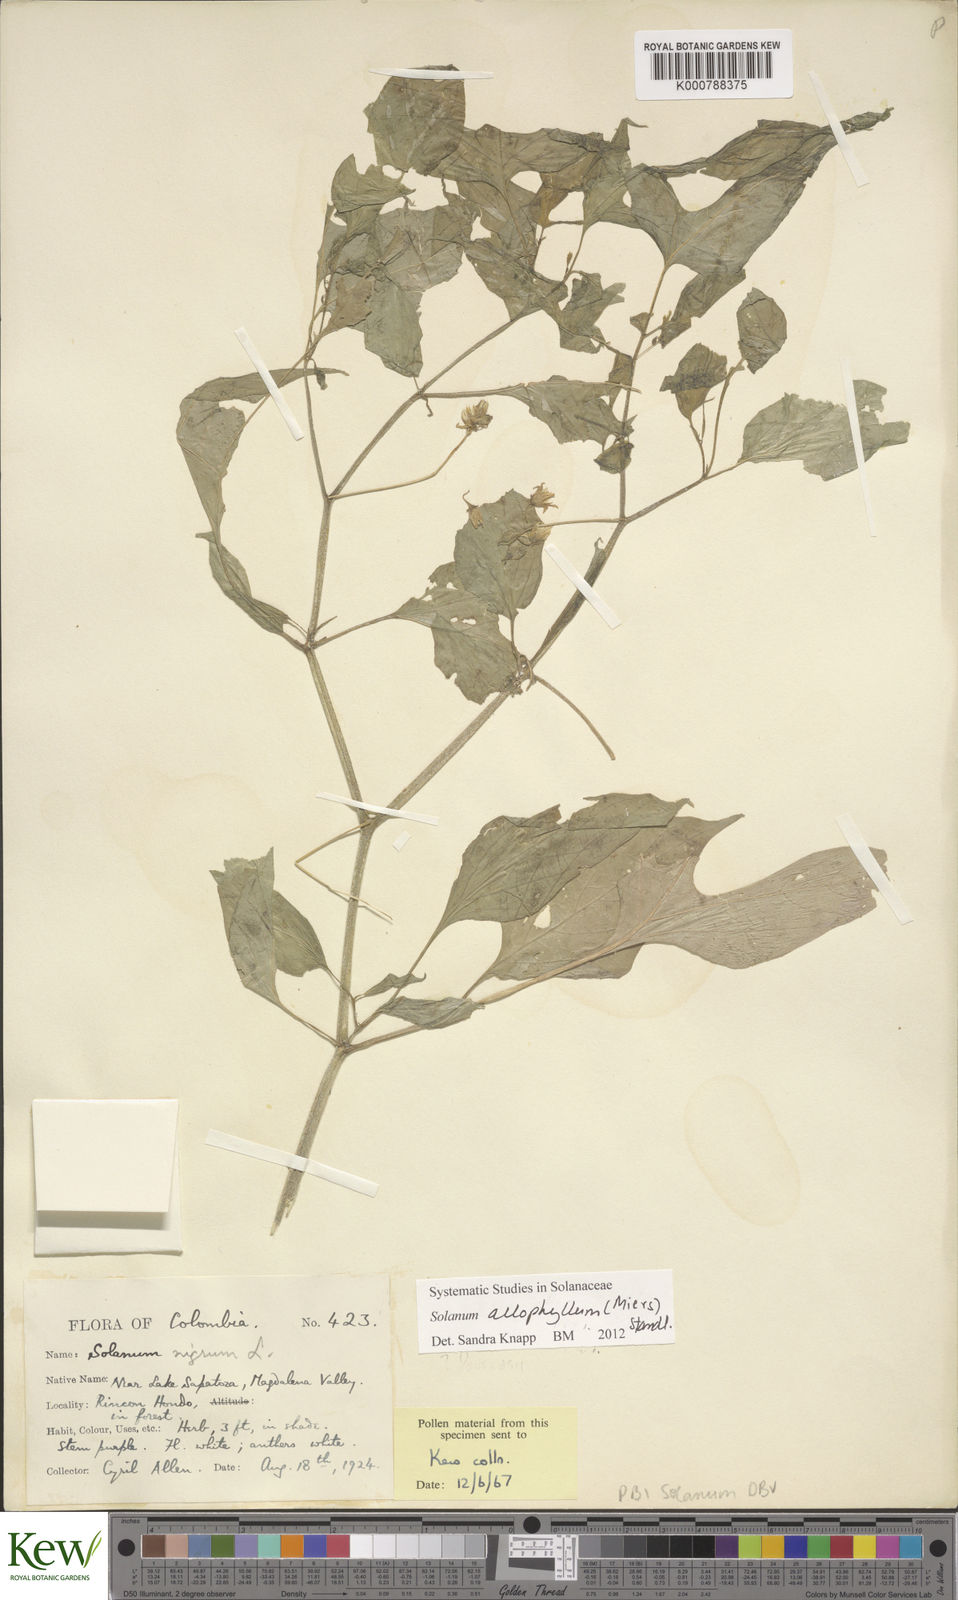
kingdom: Plantae
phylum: Tracheophyta
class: Magnoliopsida
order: Solanales
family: Solanaceae
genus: Solanum
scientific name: Solanum allophyllum
